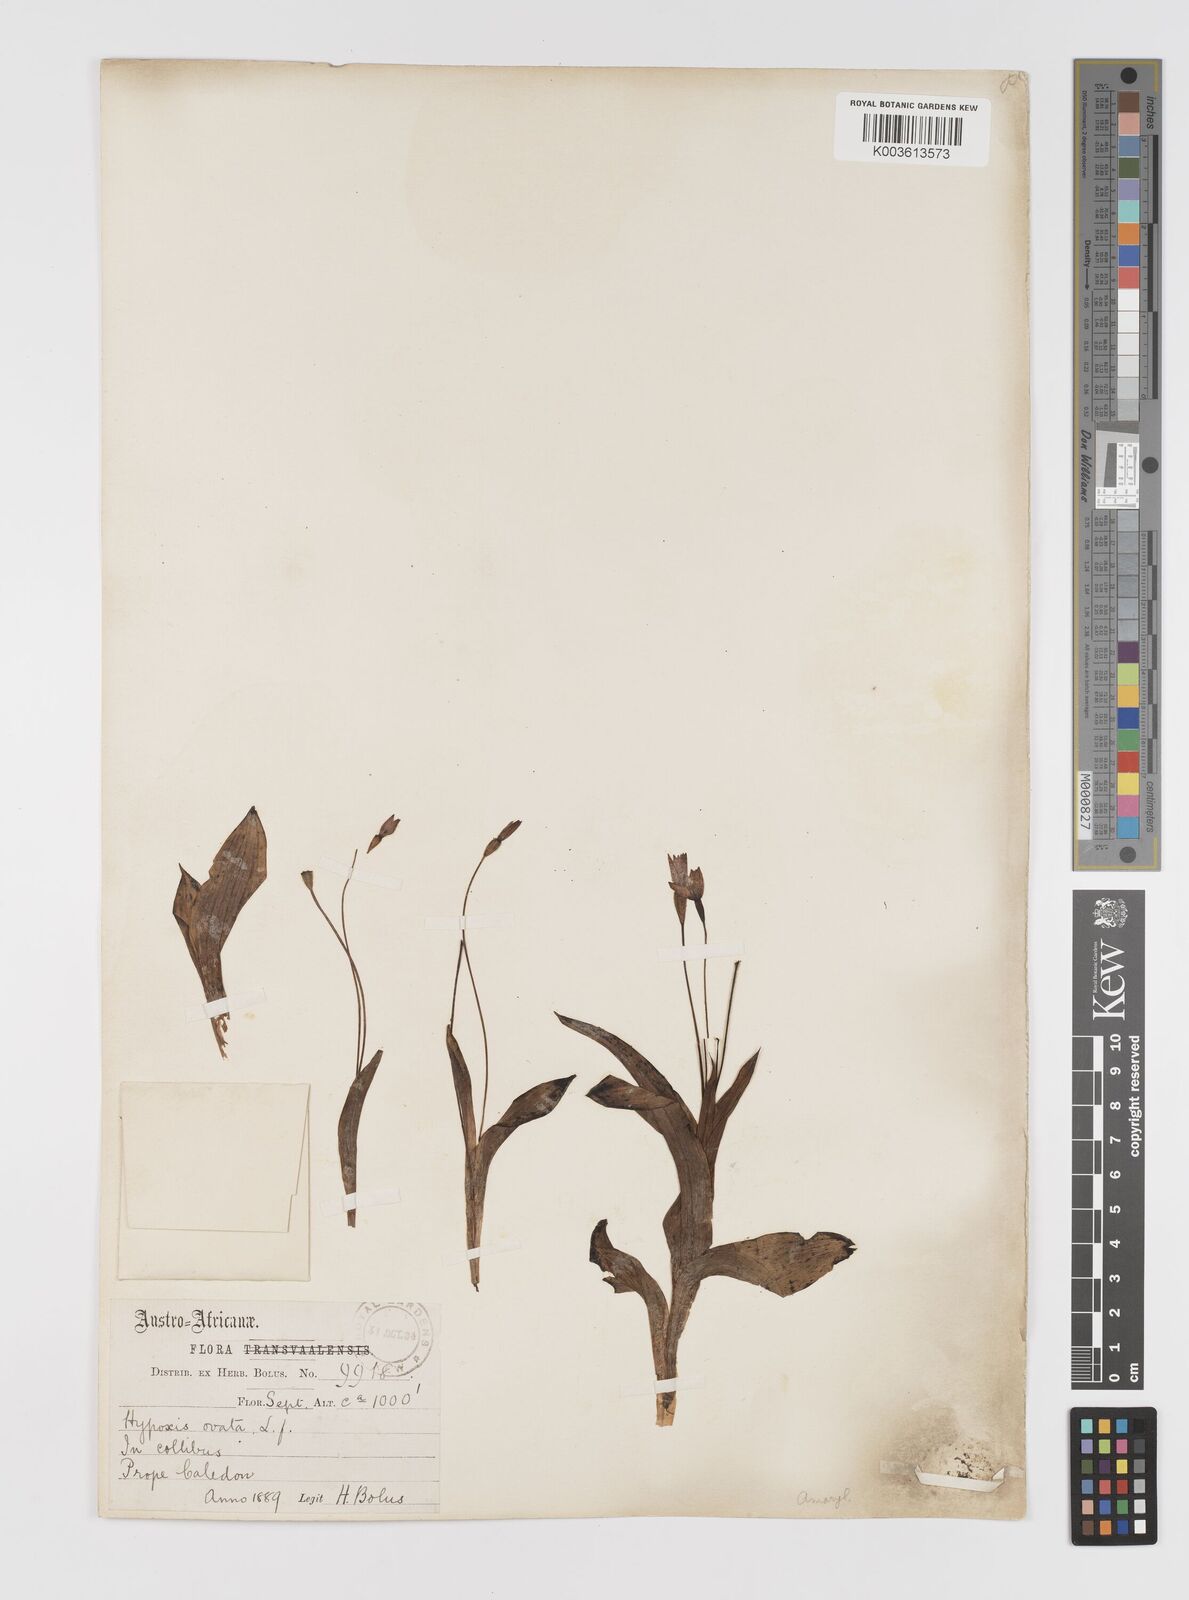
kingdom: Plantae
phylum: Tracheophyta
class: Liliopsida
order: Asparagales
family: Hypoxidaceae
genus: Pauridia
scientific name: Pauridia ovata
